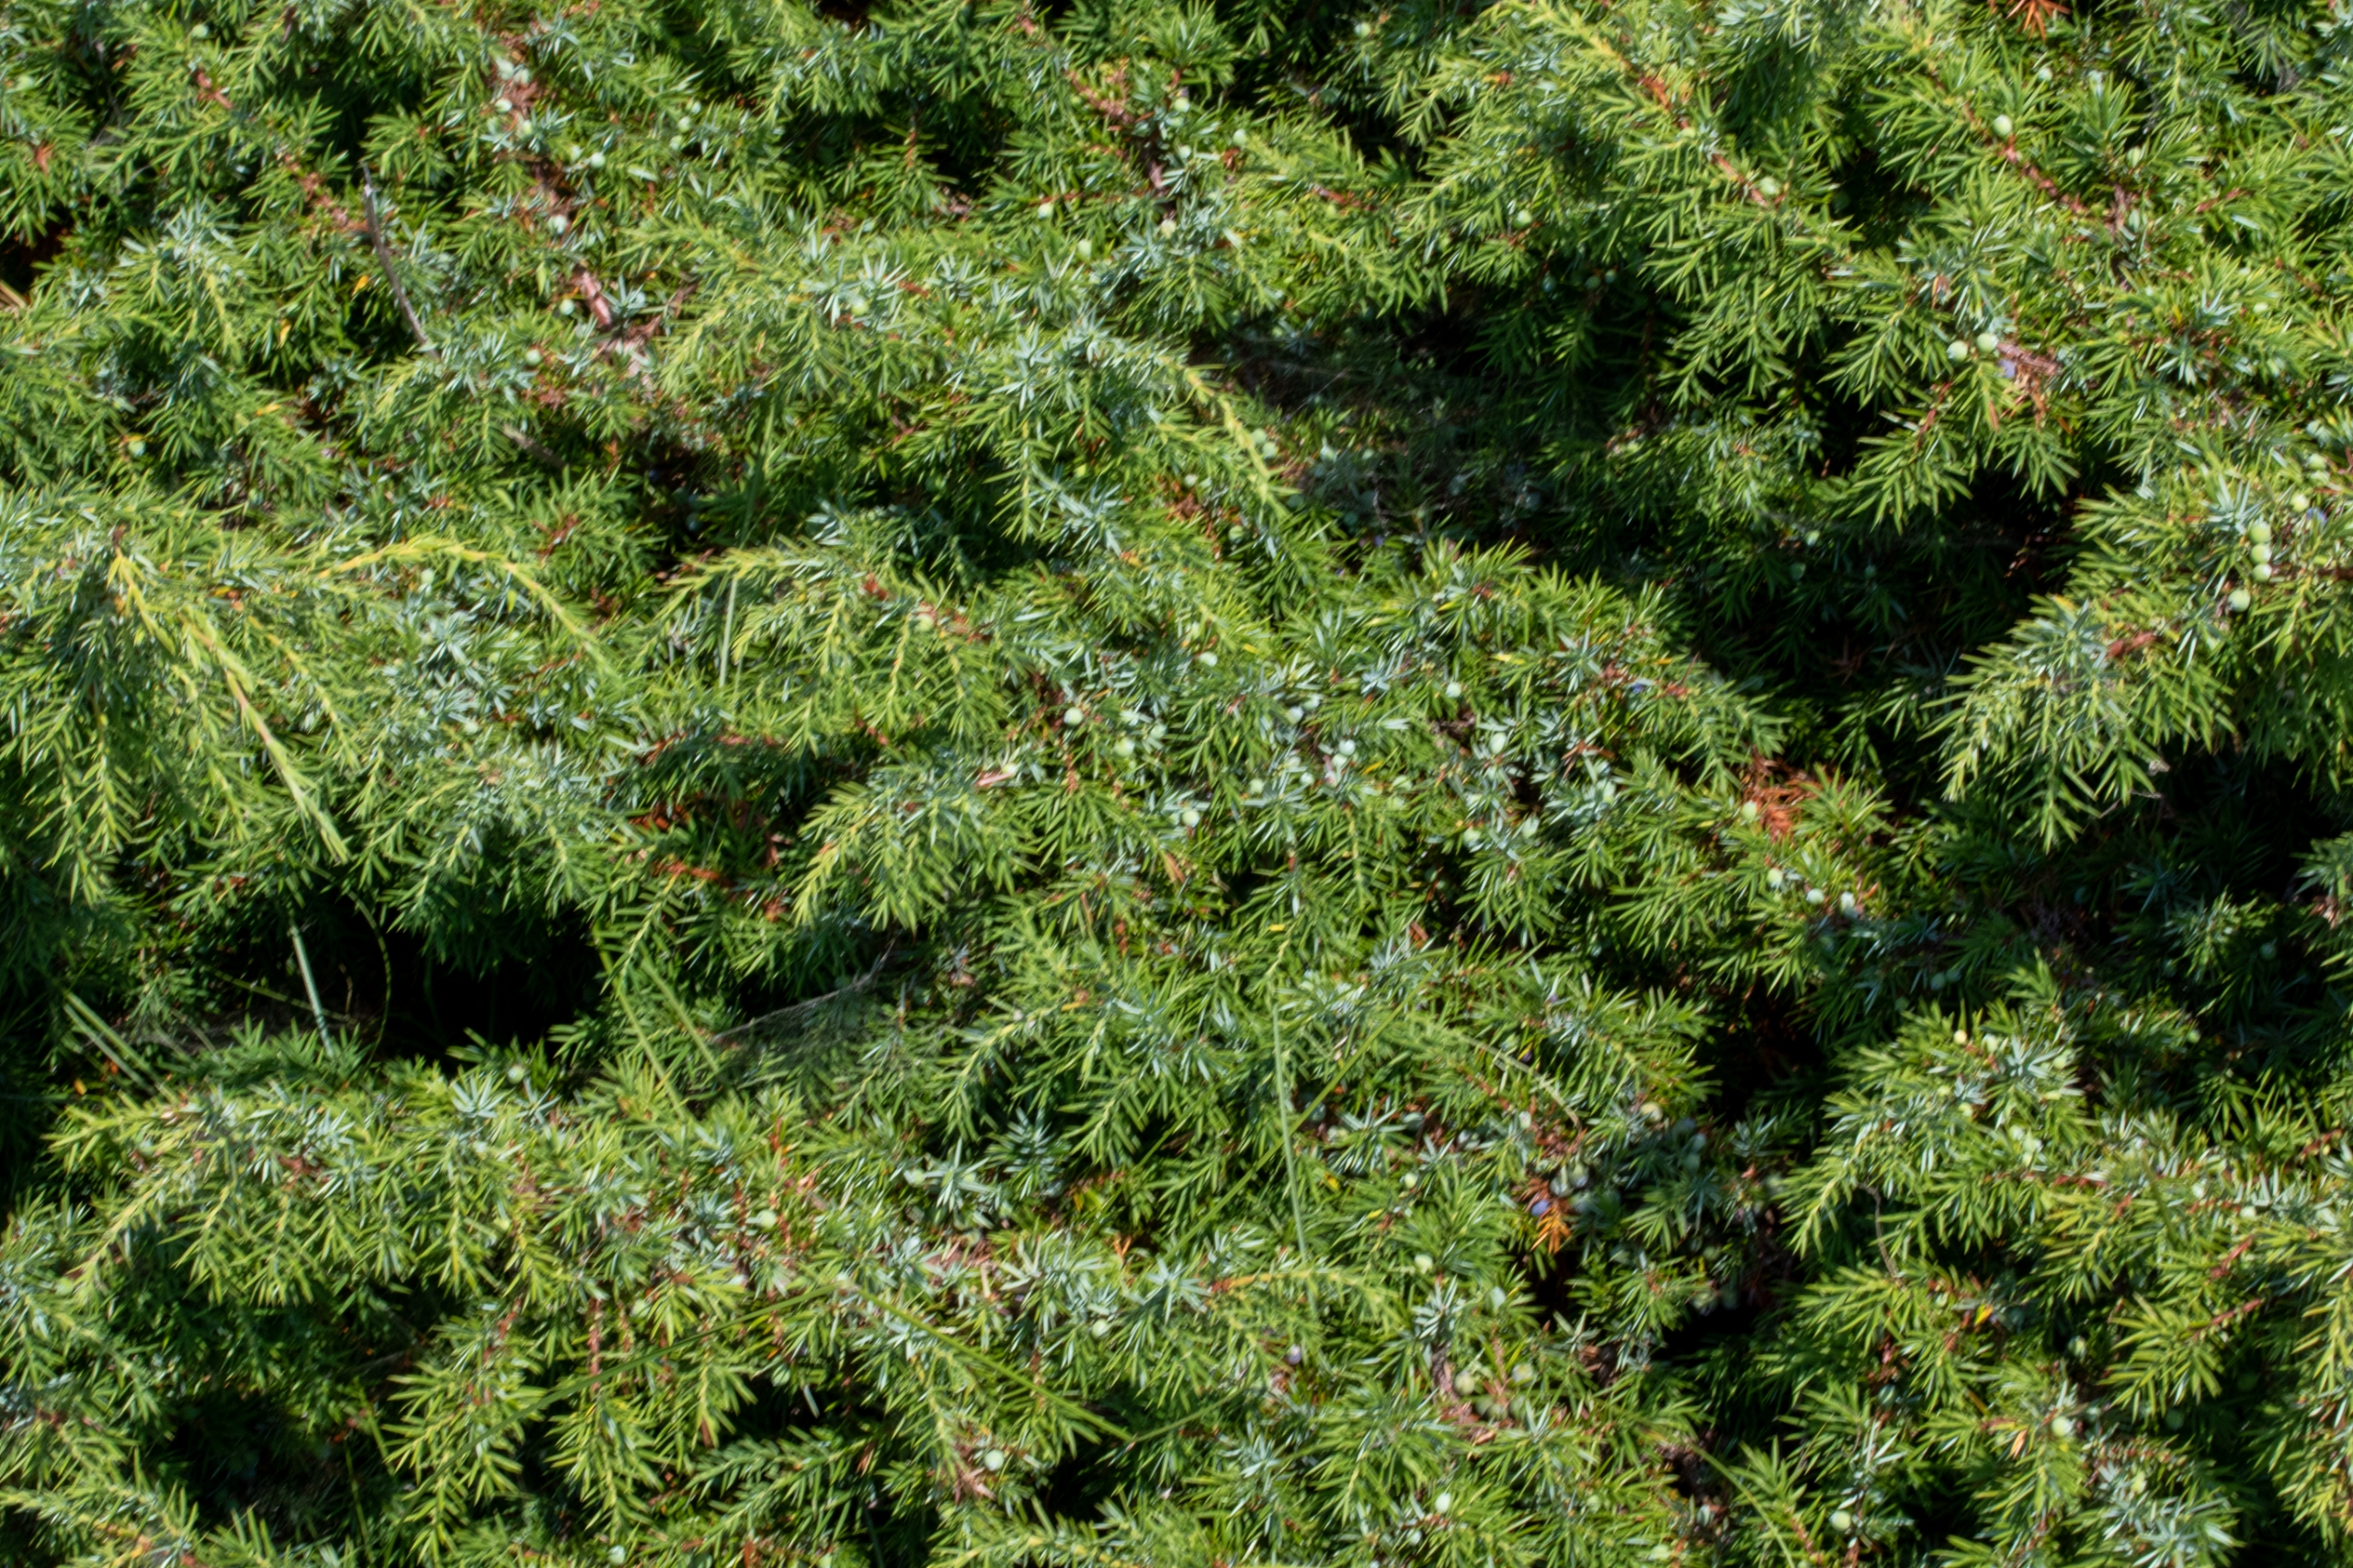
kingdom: Plantae
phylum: Tracheophyta
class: Pinopsida
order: Pinales
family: Cupressaceae
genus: Juniperus
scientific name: Juniperus communis
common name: Almindelig ene
